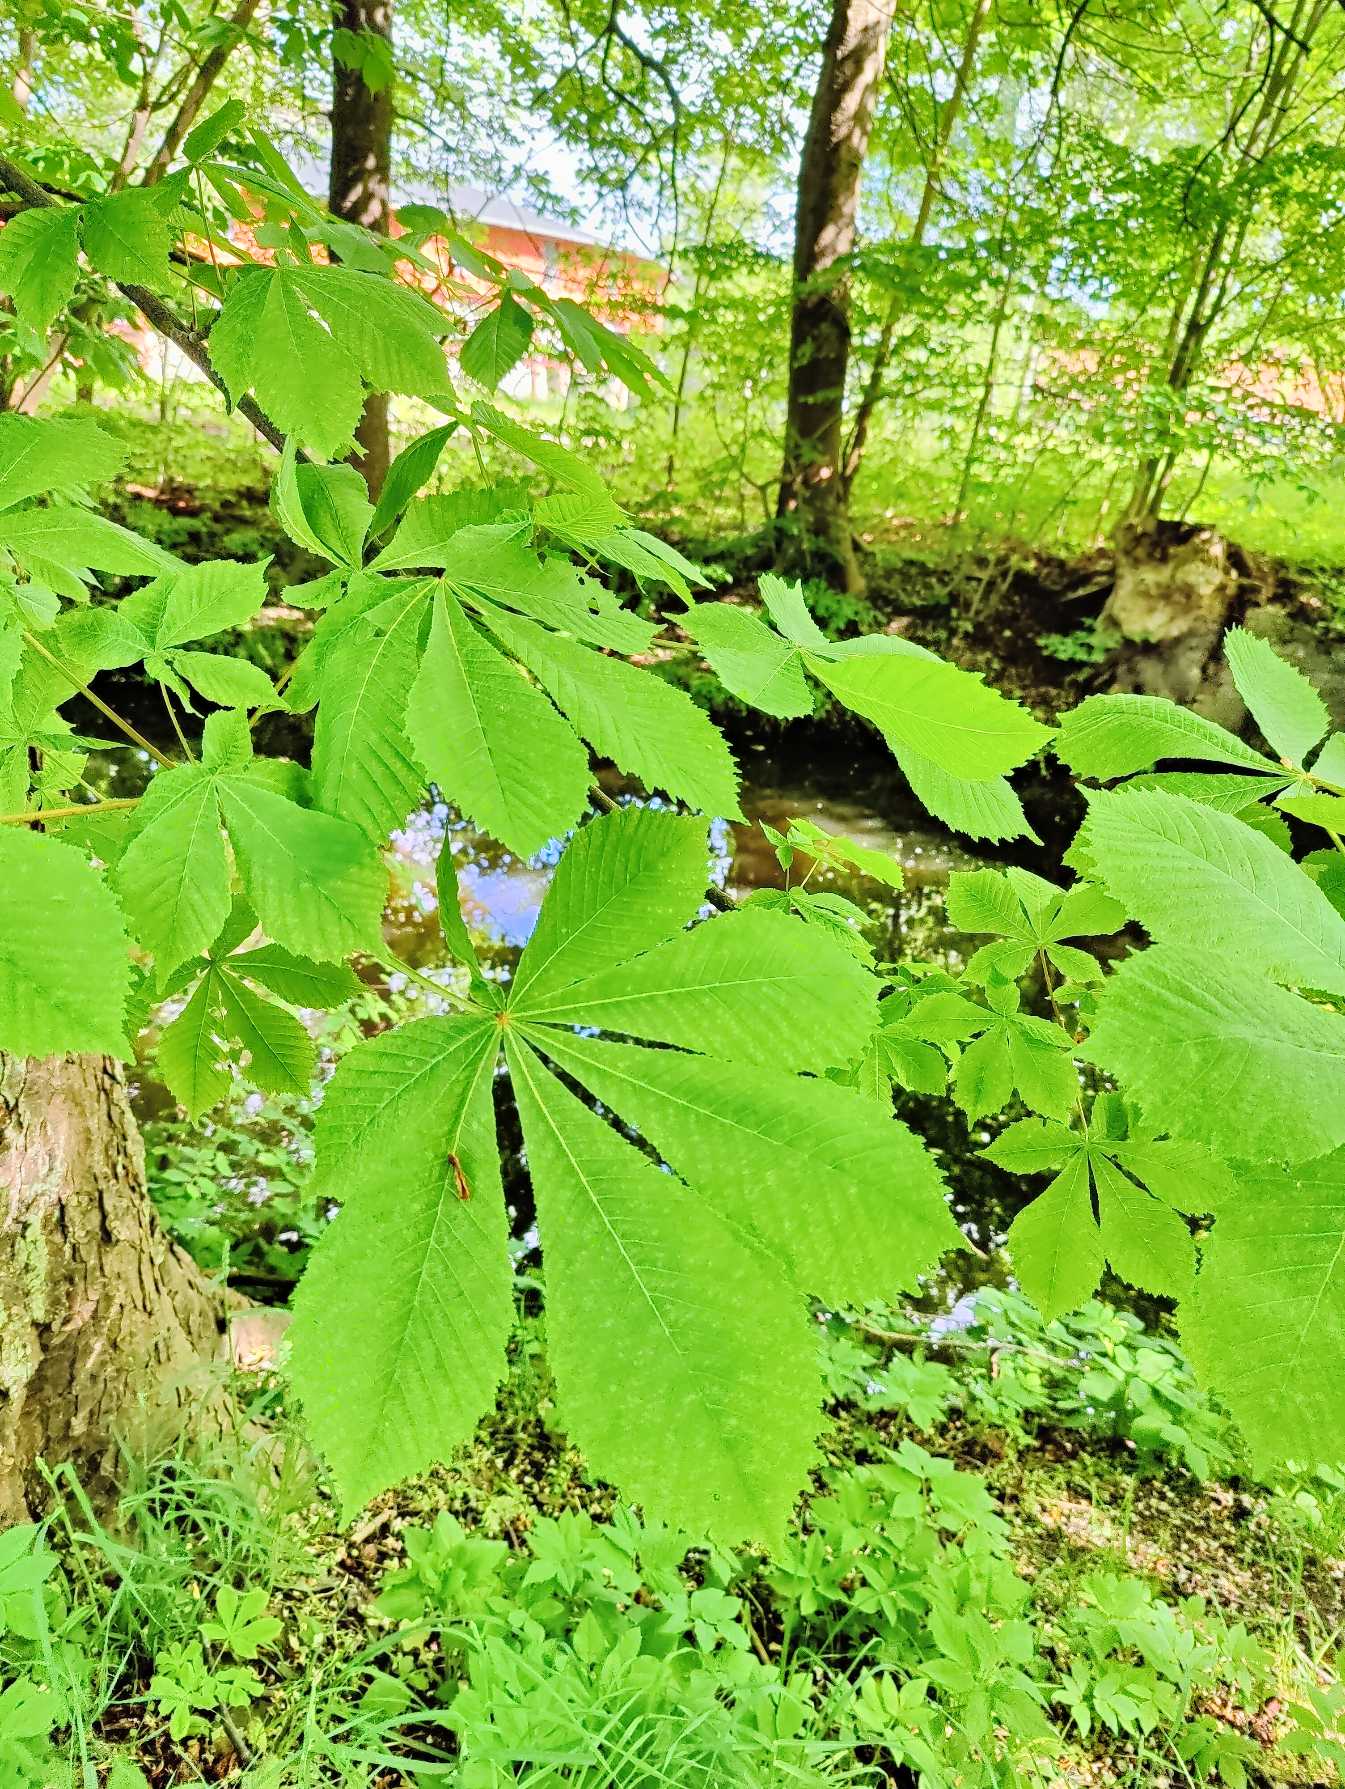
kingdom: Plantae
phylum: Tracheophyta
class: Magnoliopsida
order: Sapindales
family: Sapindaceae
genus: Aesculus
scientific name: Aesculus hippocastanum
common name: Hestekastanie
